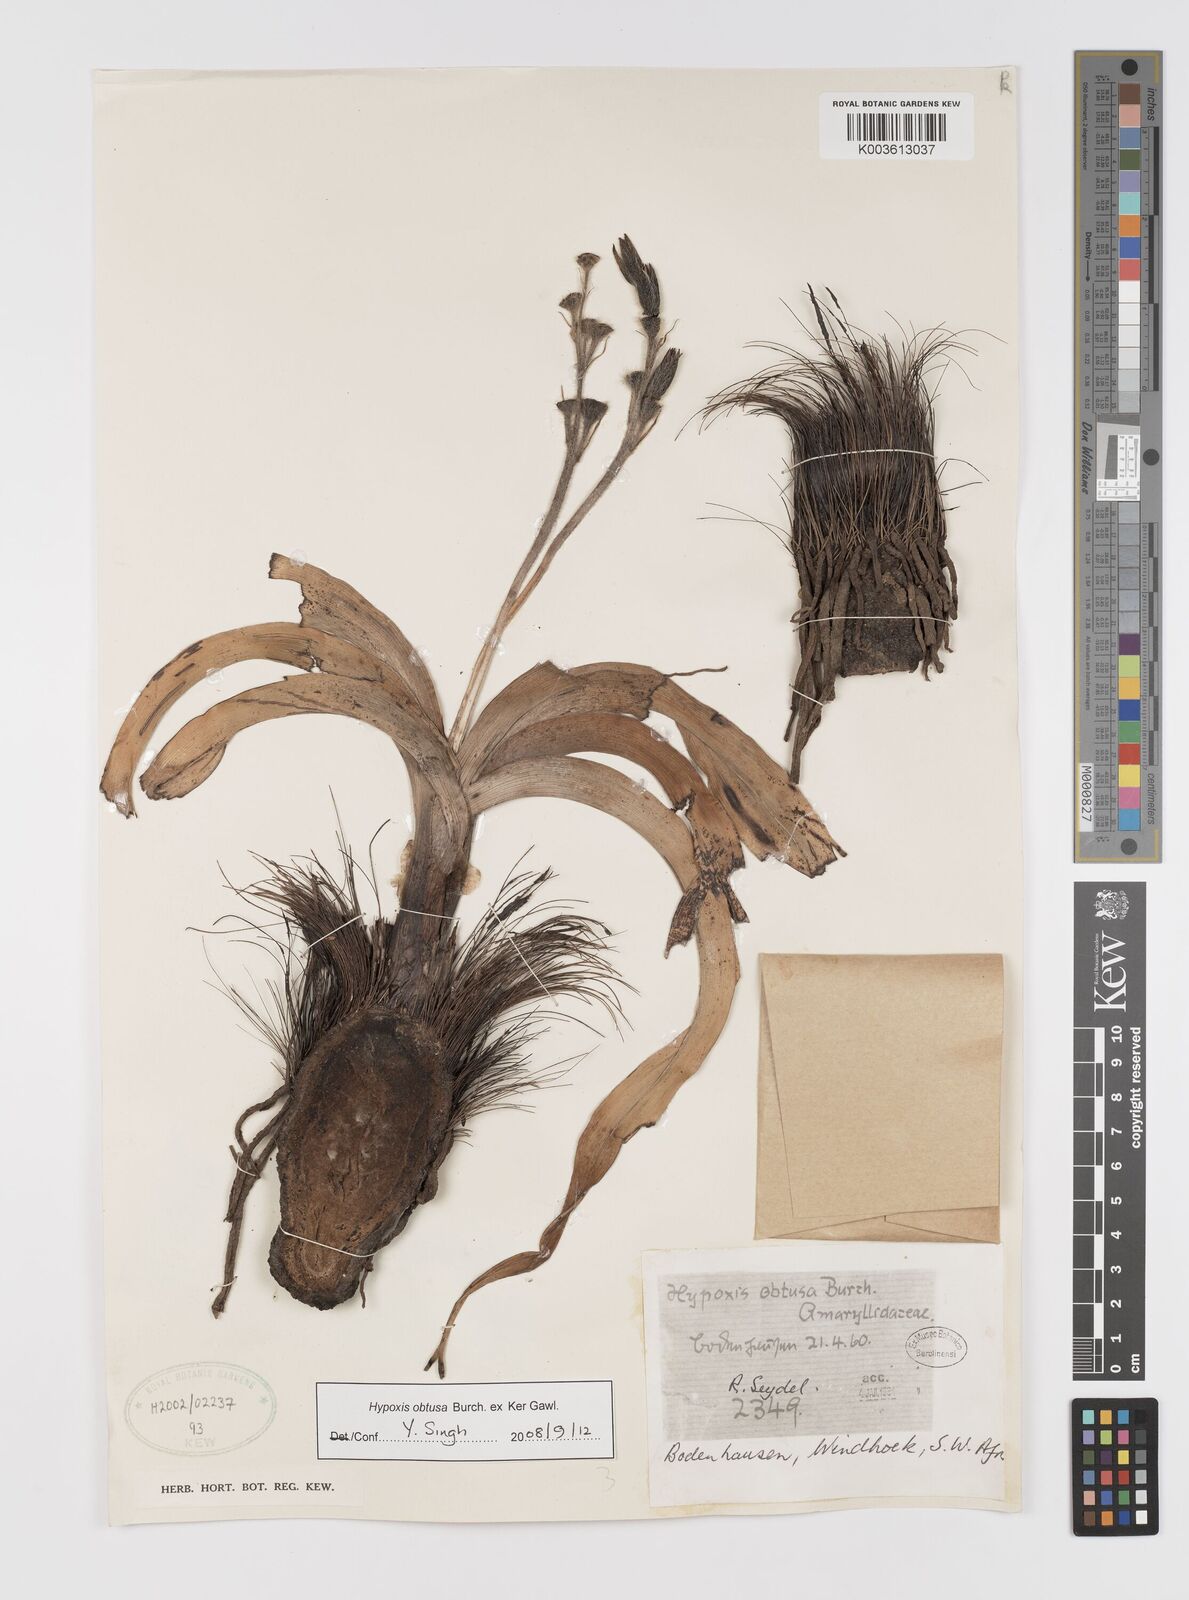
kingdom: Plantae
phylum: Tracheophyta
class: Liliopsida
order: Asparagales
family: Hypoxidaceae
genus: Hypoxis
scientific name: Hypoxis obtusa
